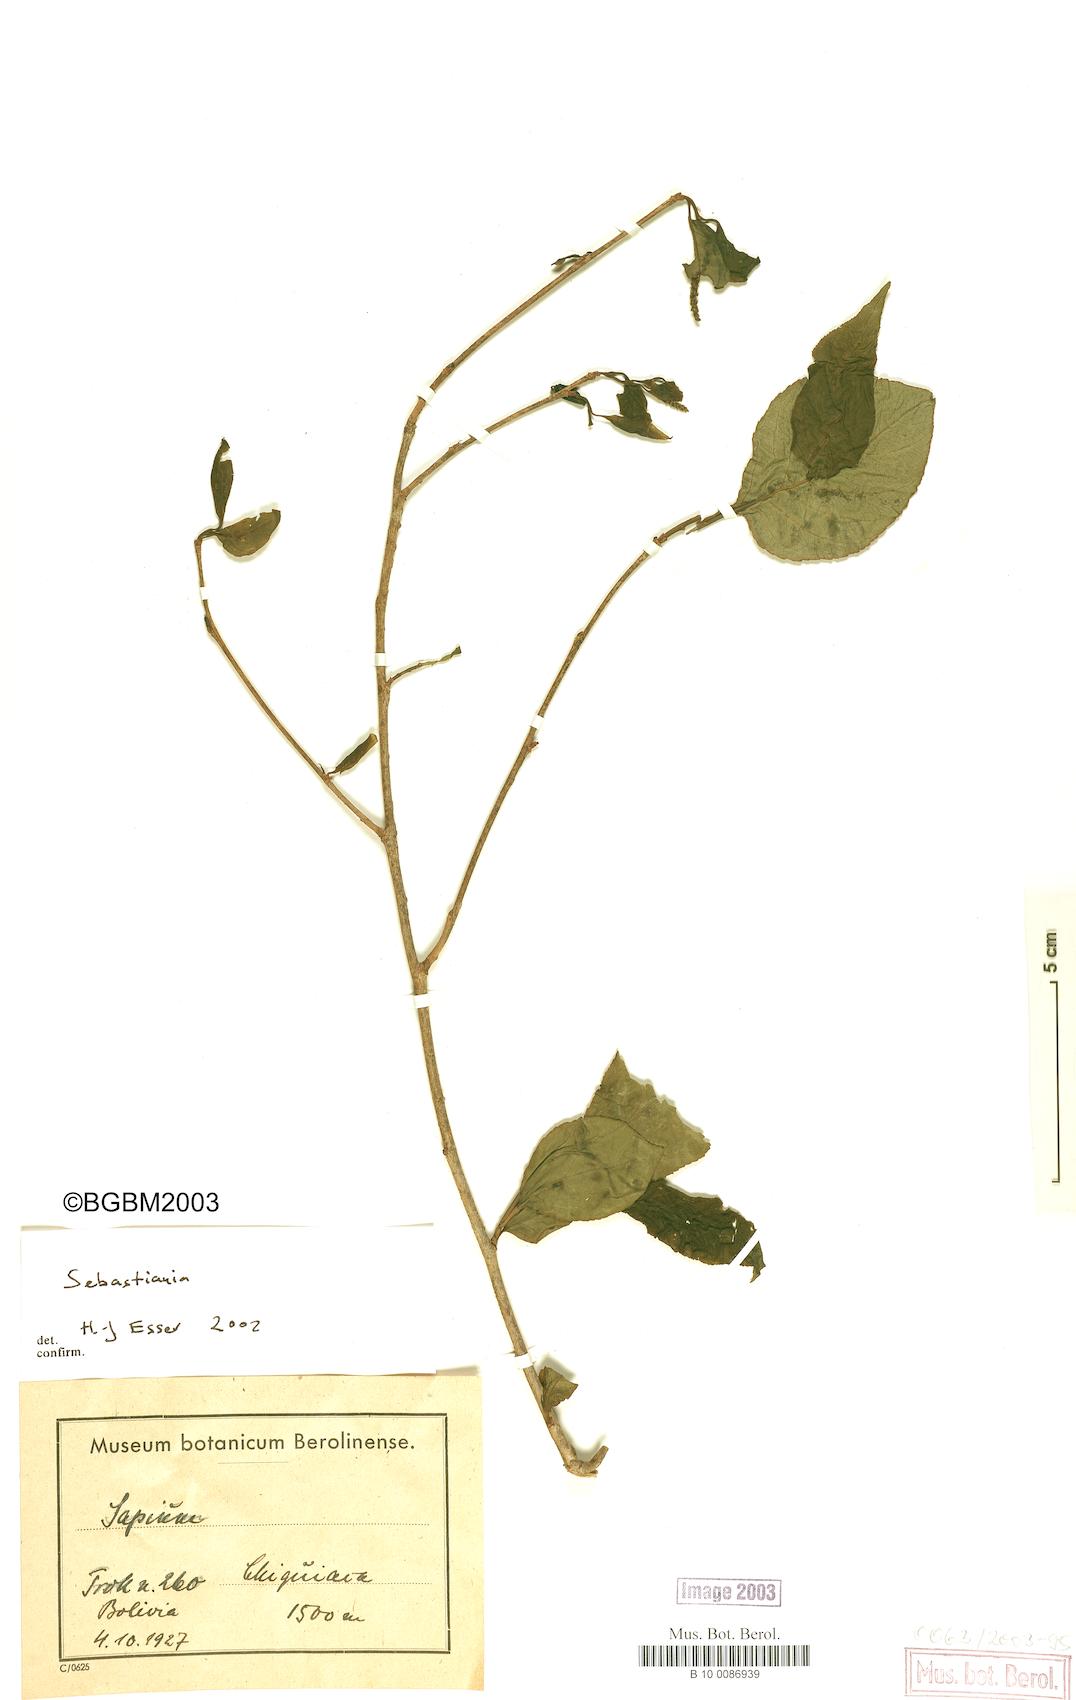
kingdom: Plantae
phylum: Tracheophyta
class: Magnoliopsida
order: Malpighiales
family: Euphorbiaceae
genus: Sebastiania
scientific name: Sebastiania
